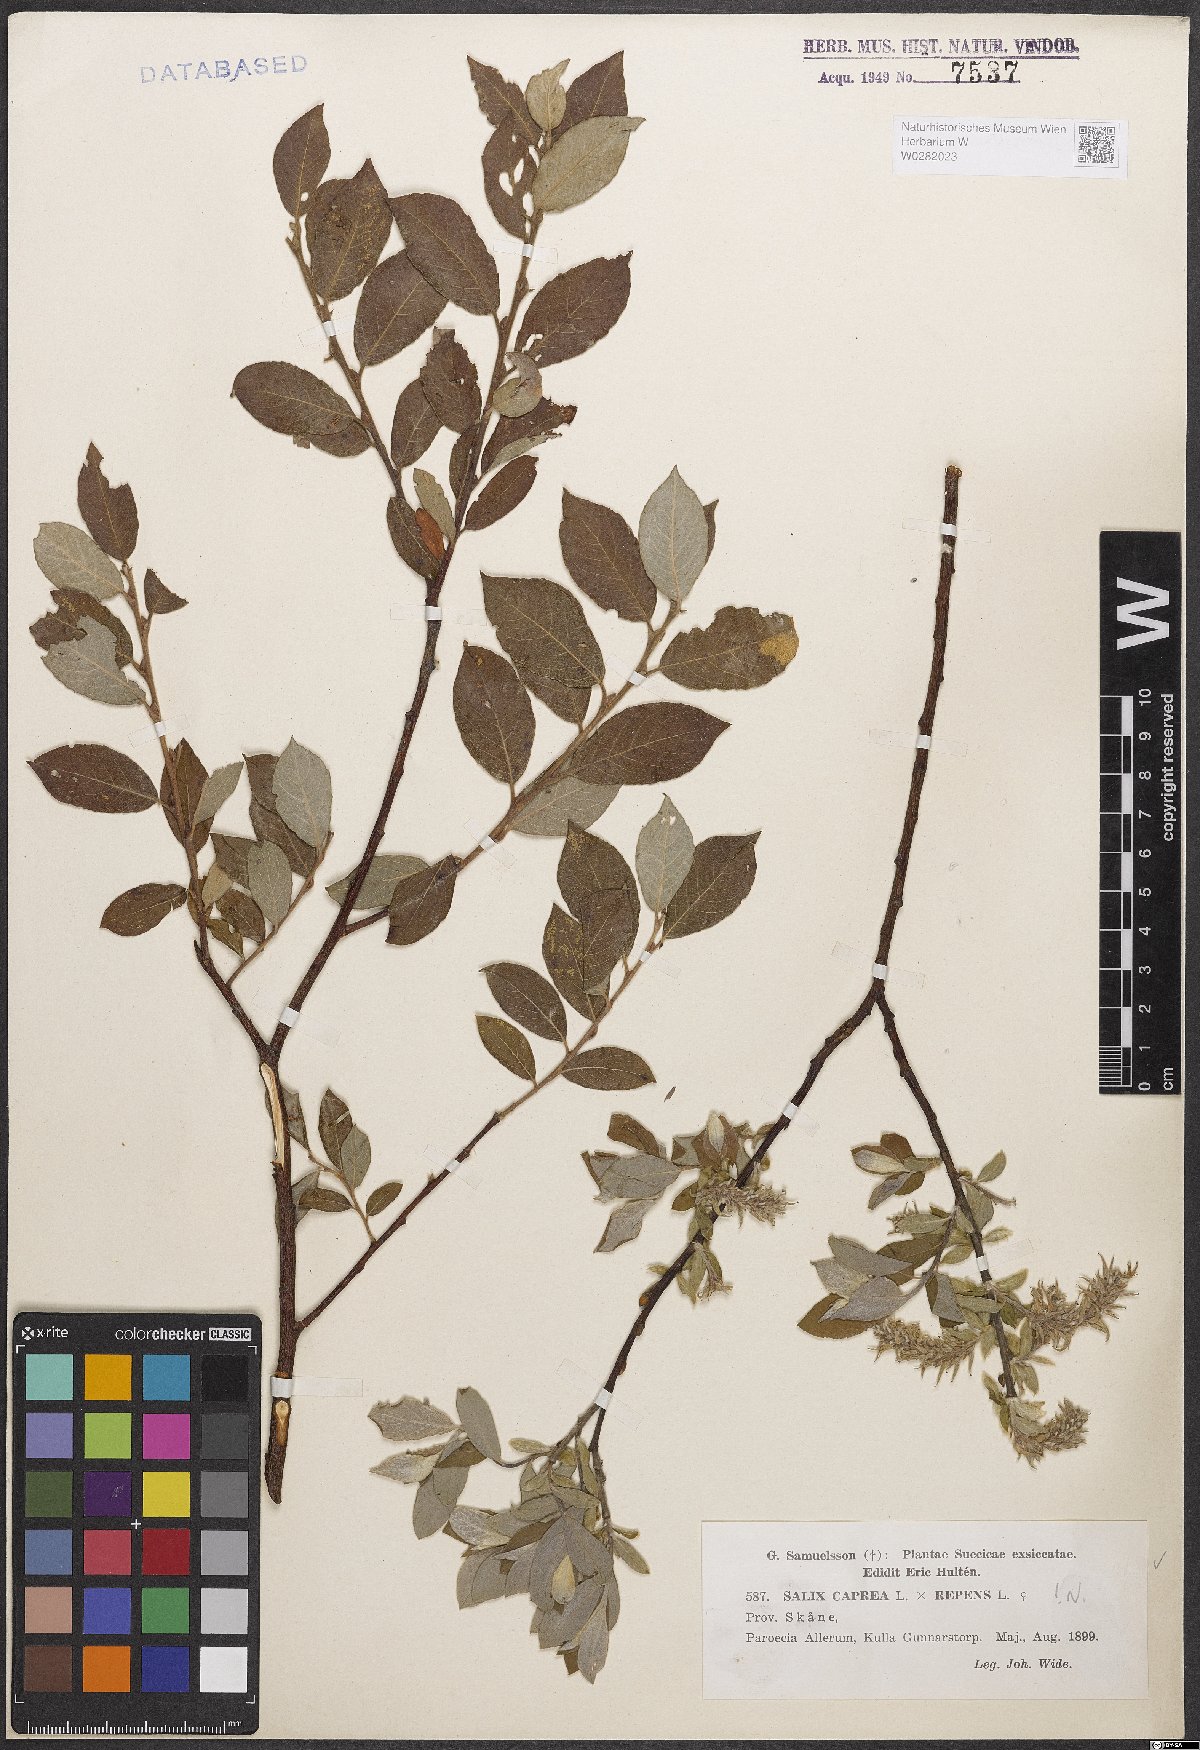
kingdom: Plantae
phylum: Tracheophyta
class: Magnoliopsida
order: Malpighiales
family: Salicaceae
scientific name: Salicaceae
